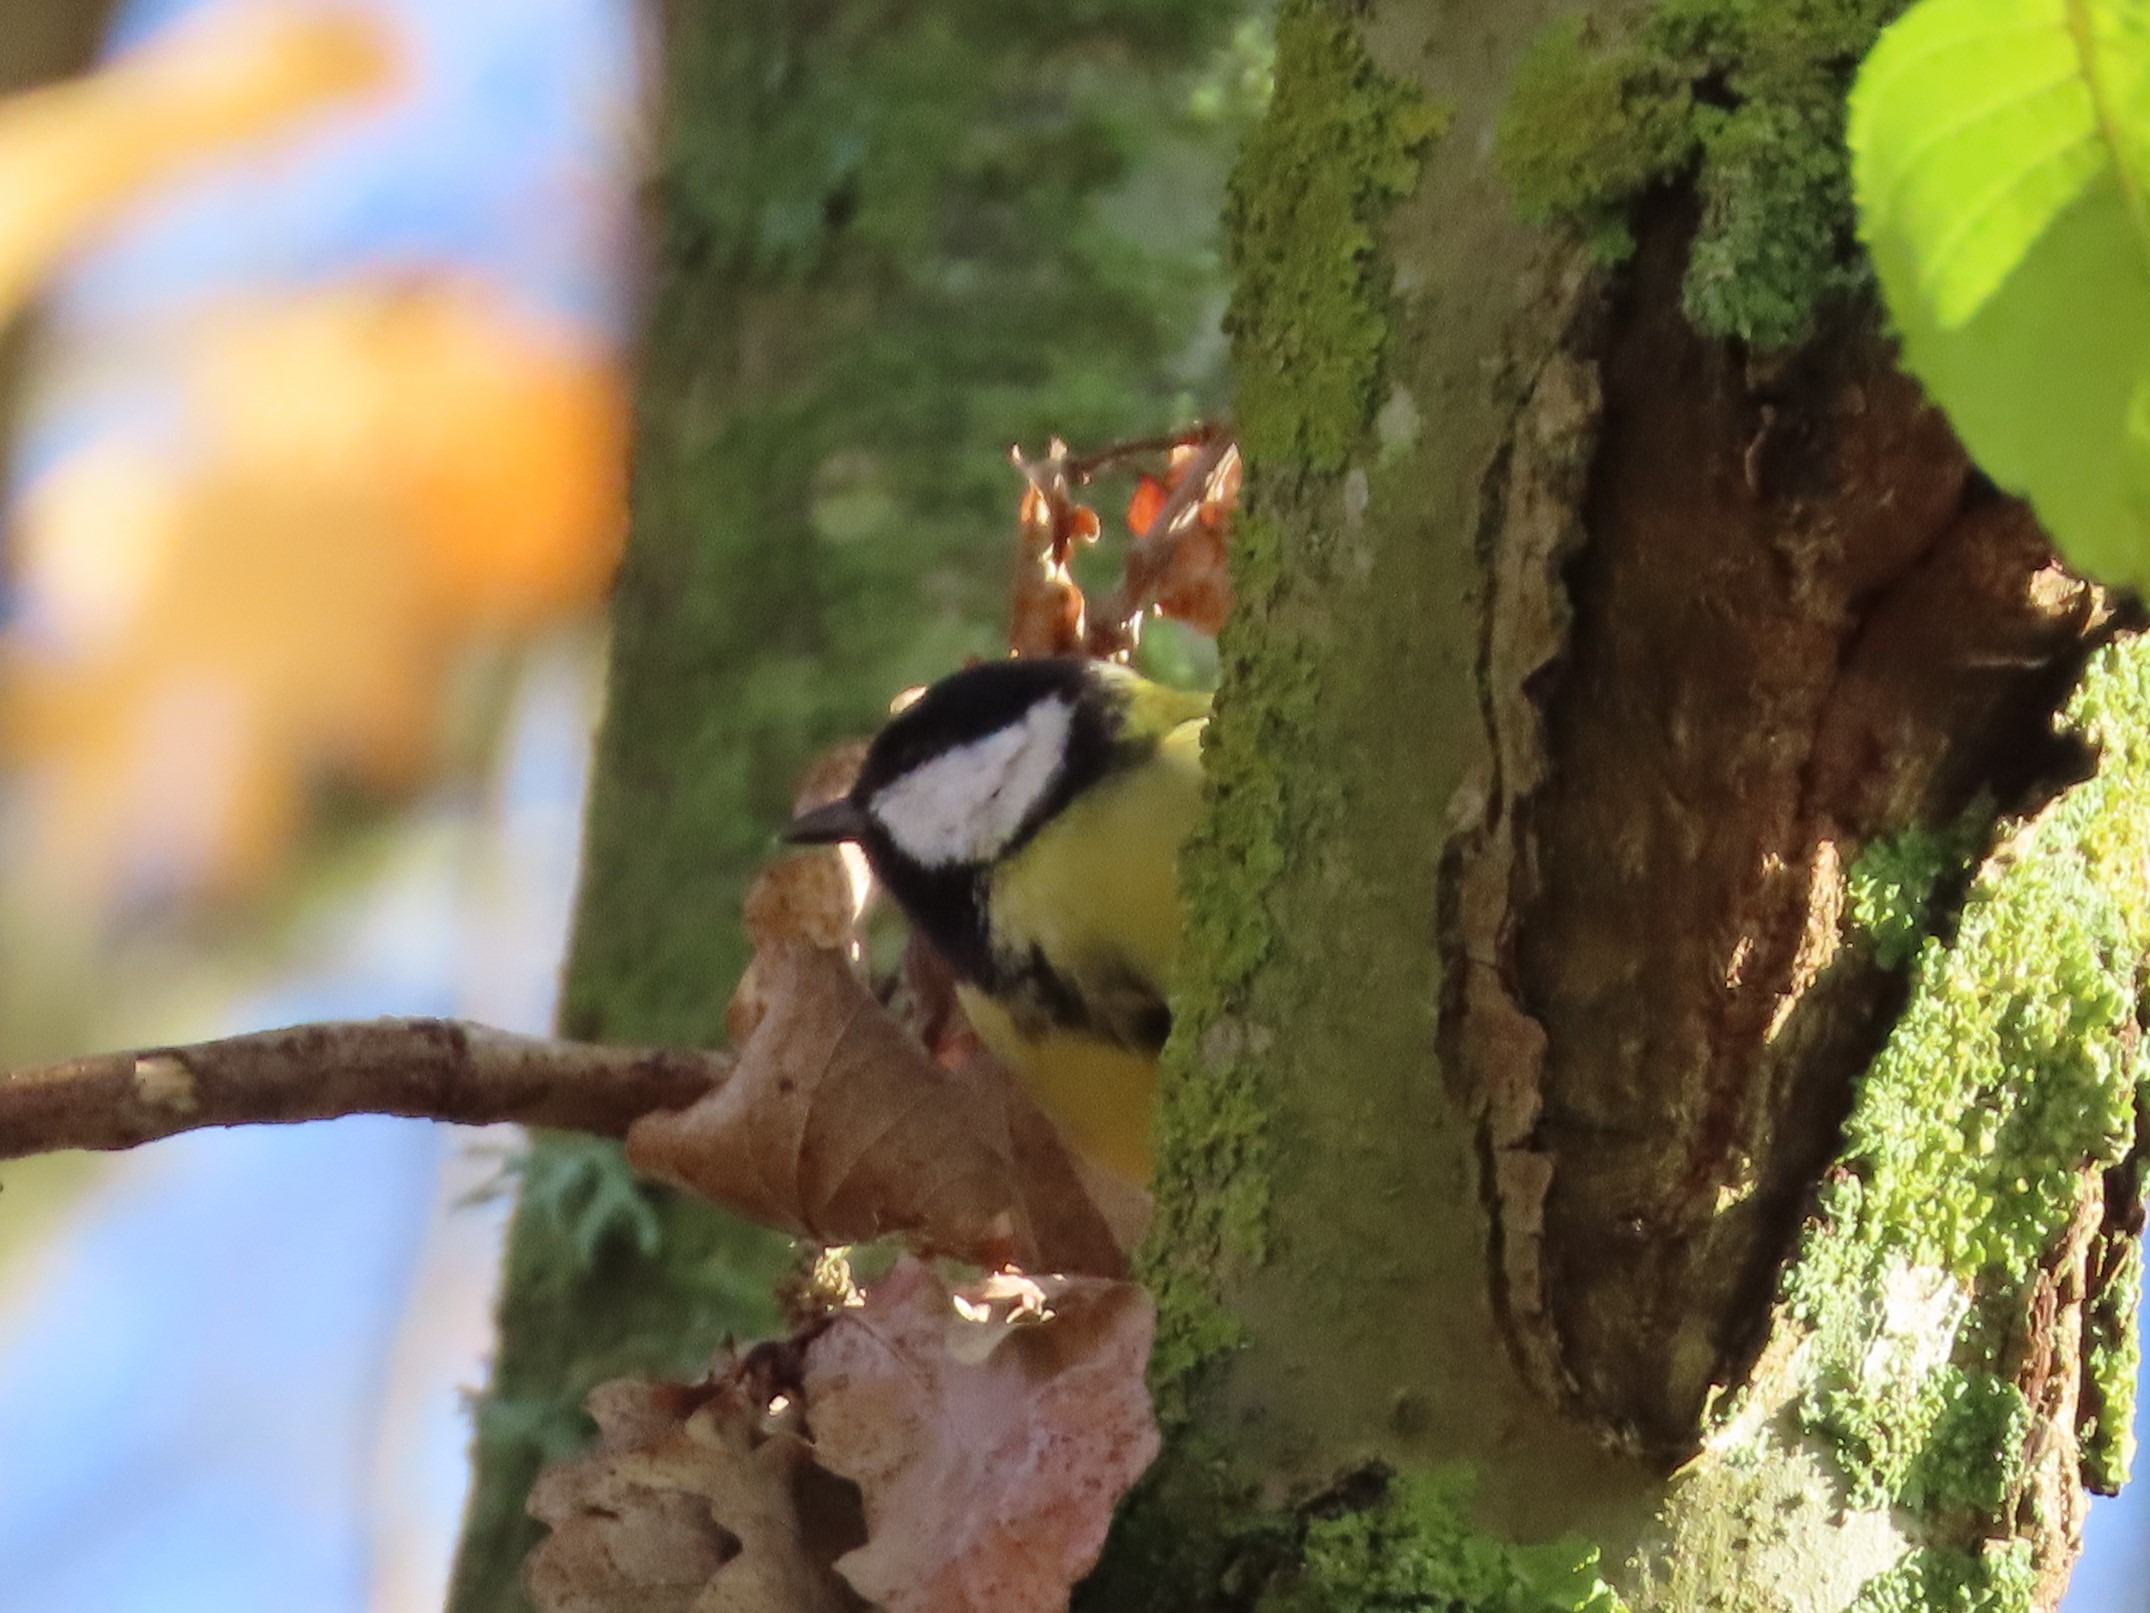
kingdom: Animalia
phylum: Chordata
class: Aves
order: Passeriformes
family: Paridae
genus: Parus
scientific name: Parus major
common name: Musvit
